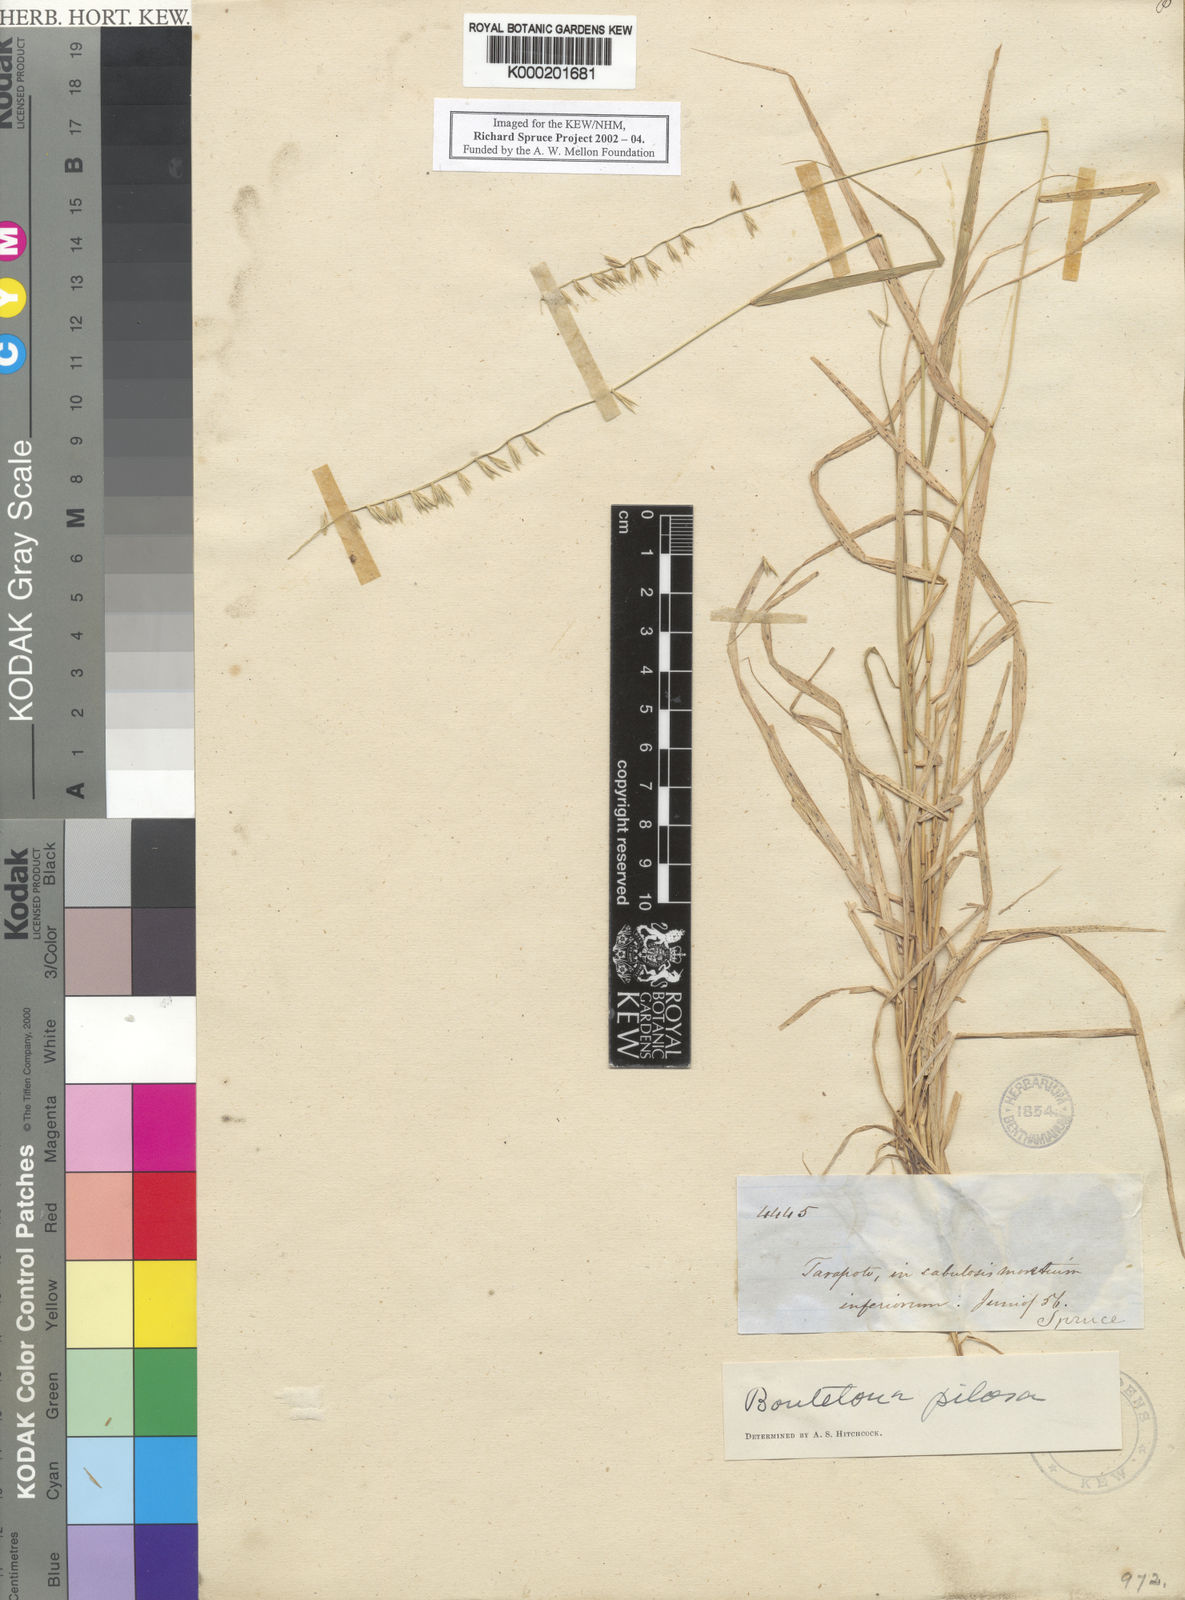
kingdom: Plantae
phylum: Tracheophyta
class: Liliopsida
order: Poales
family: Poaceae
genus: Bouteloua
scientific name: Bouteloua disticha
